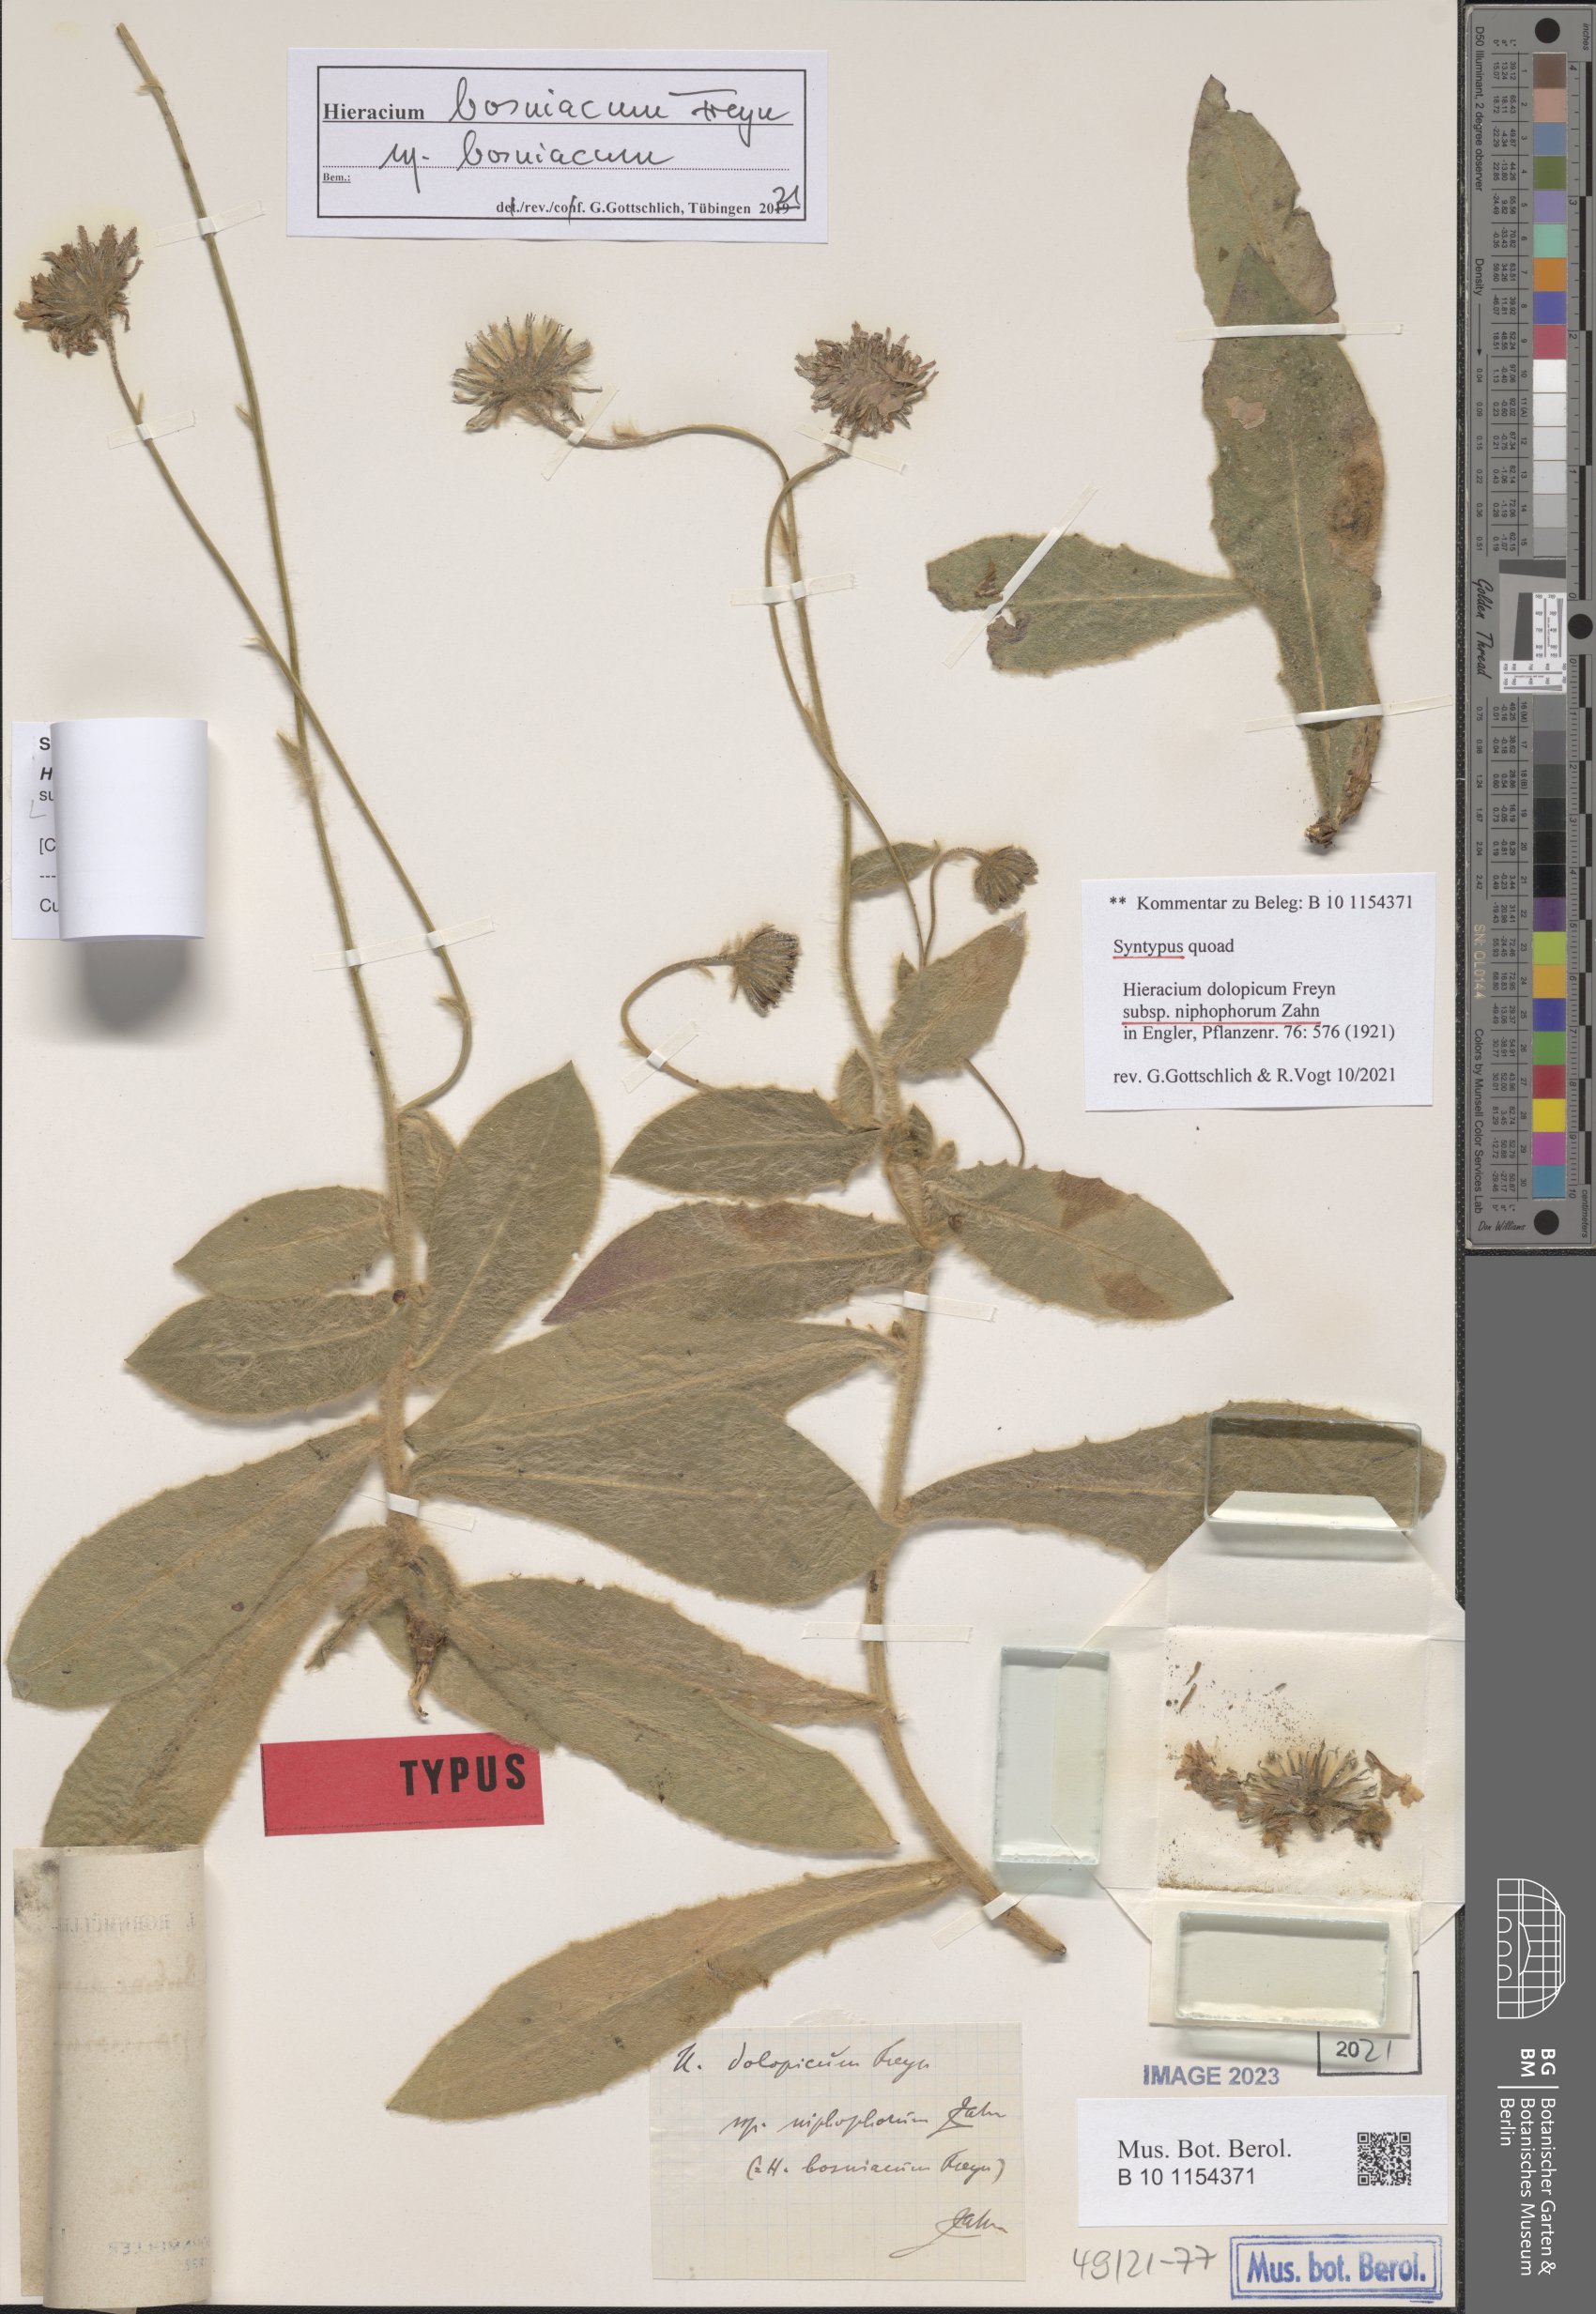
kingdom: Plantae
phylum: Tracheophyta
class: Magnoliopsida
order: Asterales
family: Asteraceae
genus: Hieracium
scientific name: Hieracium bosniacum
